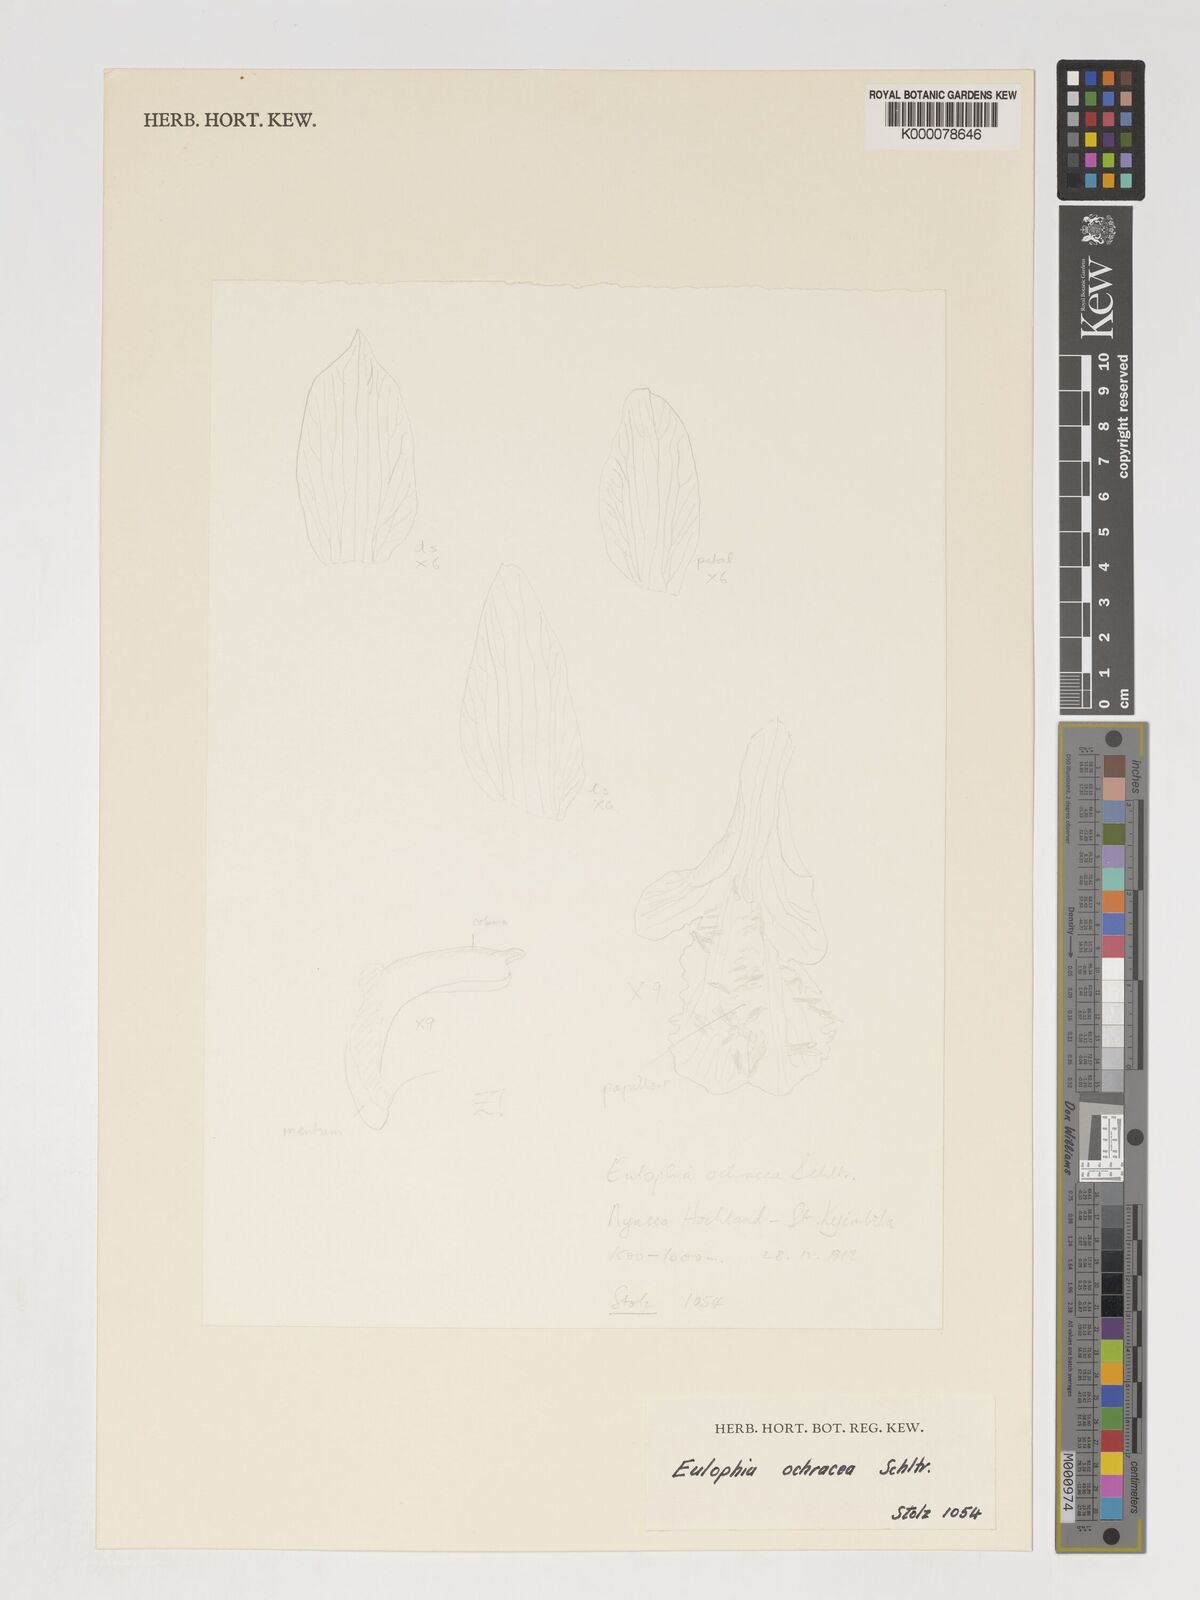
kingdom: Plantae
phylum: Tracheophyta
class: Liliopsida
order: Asparagales
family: Orchidaceae
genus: Eulophia
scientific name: Eulophia odontoglossa
